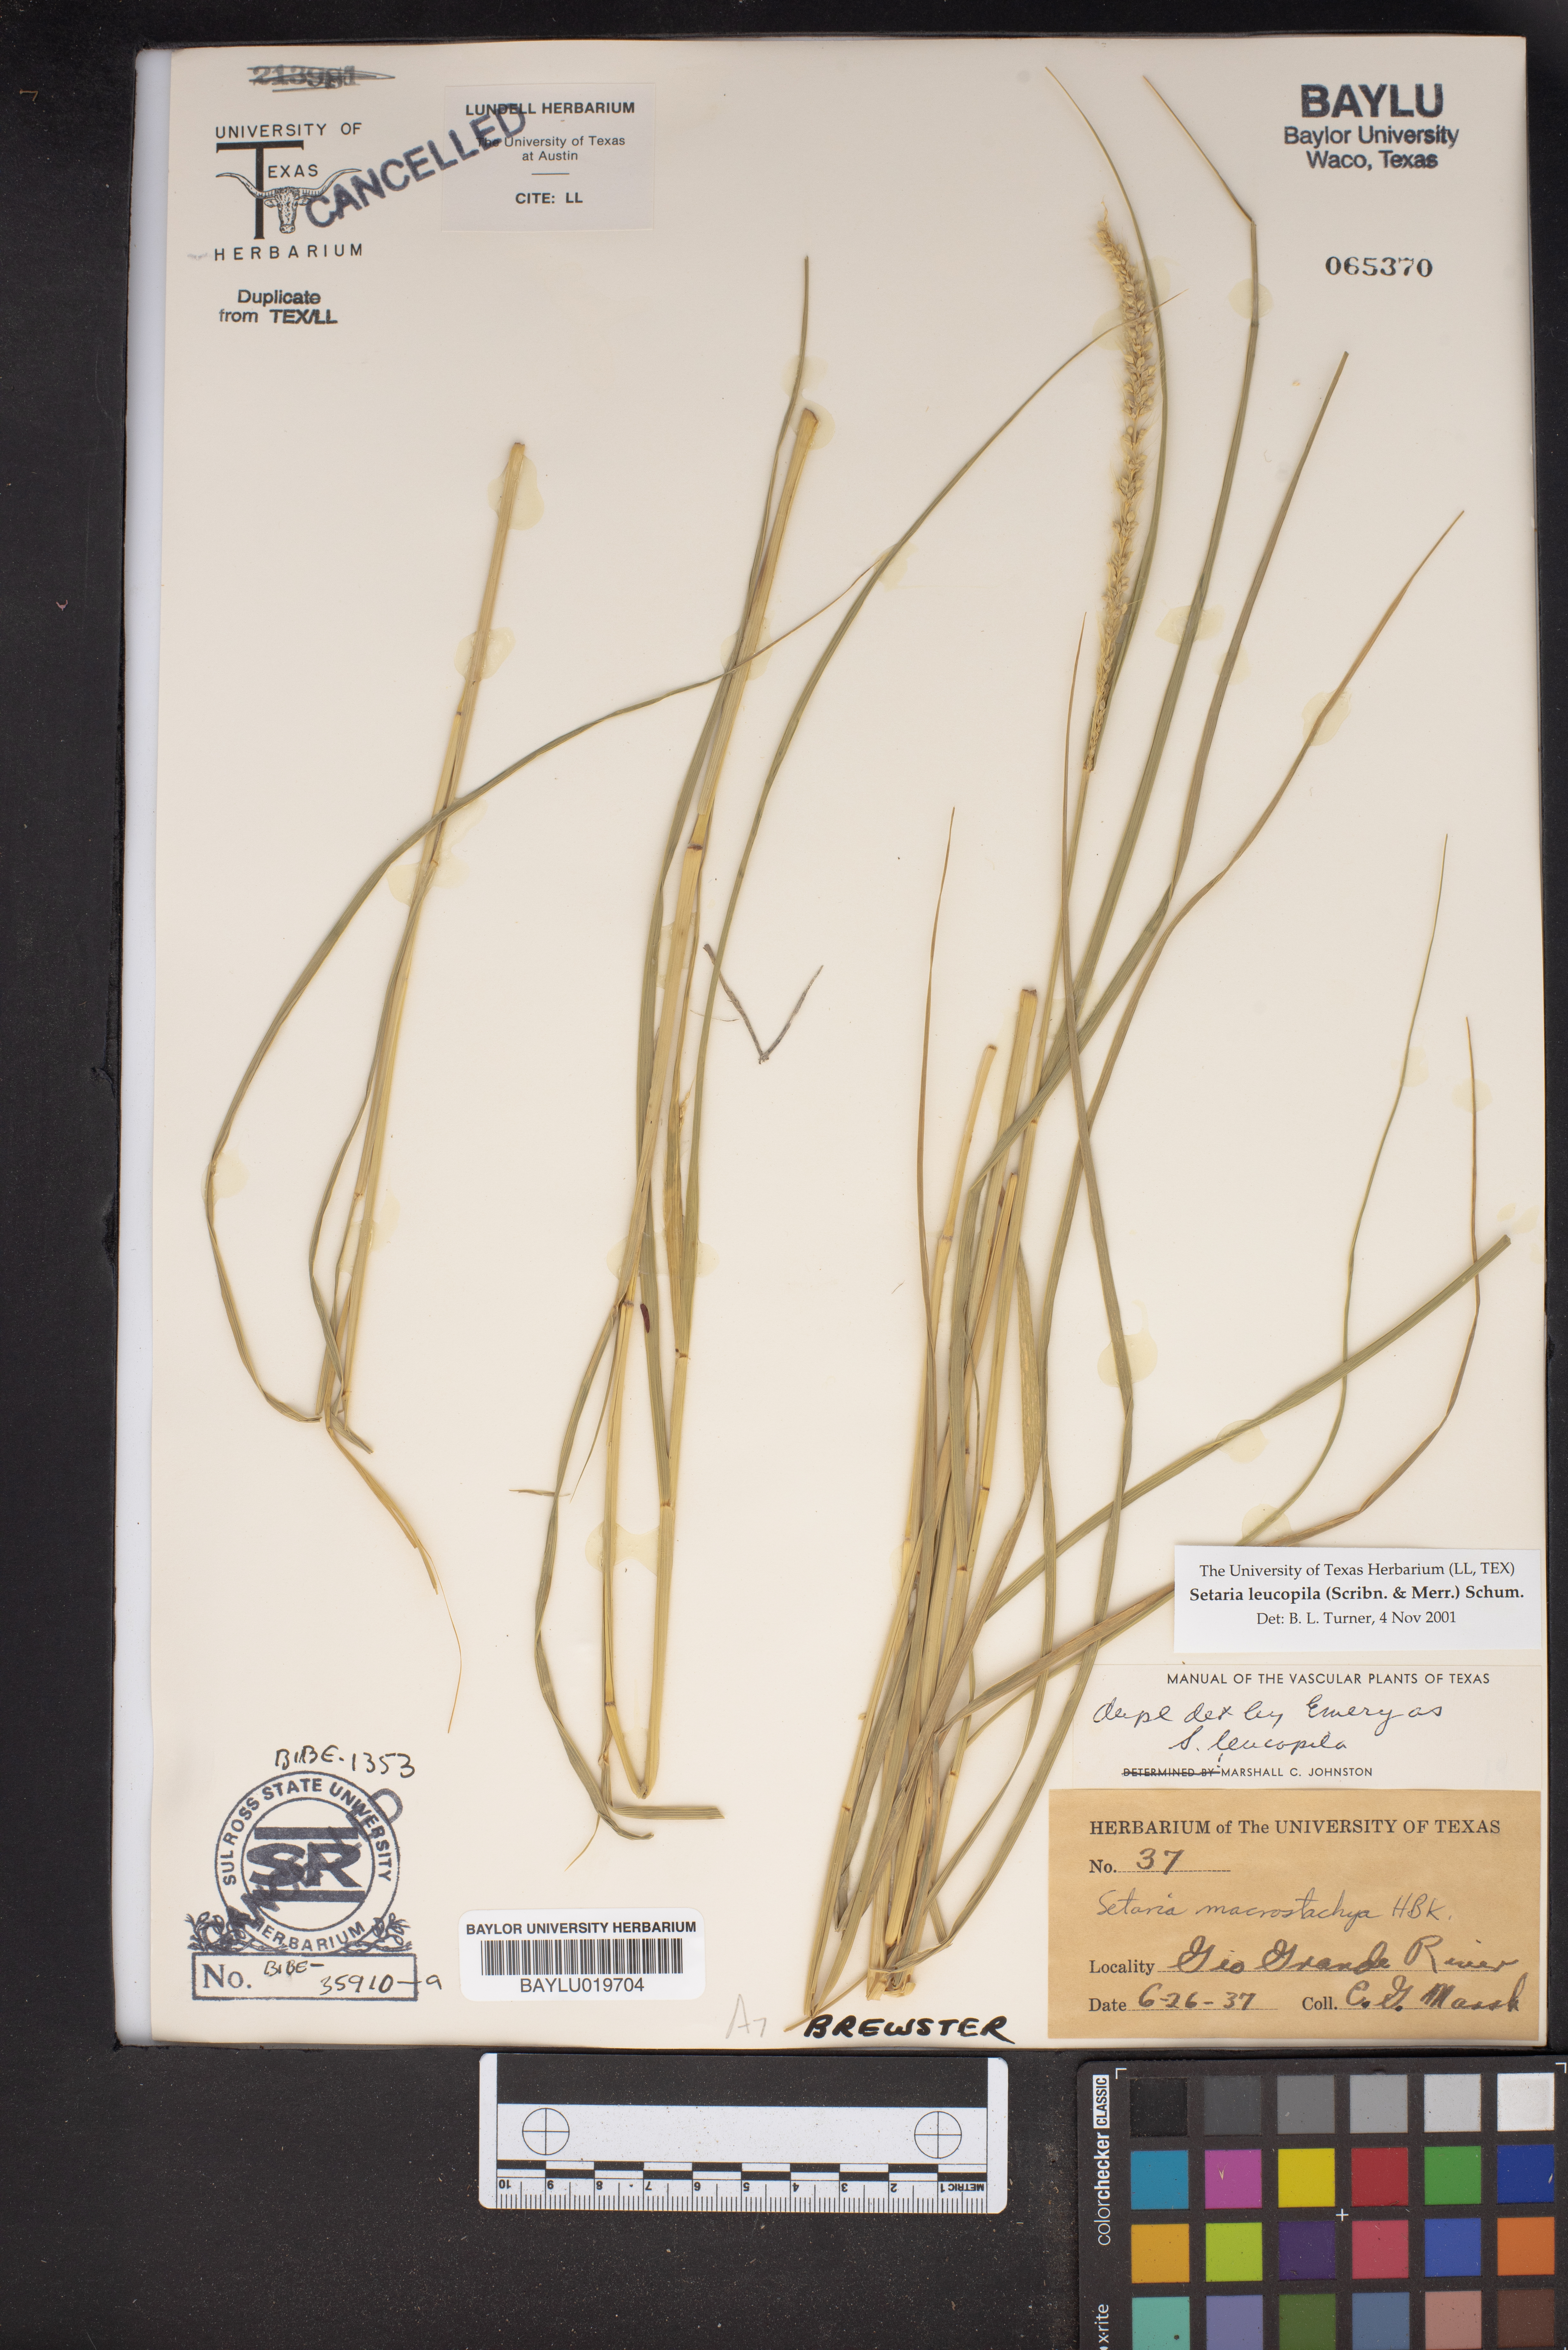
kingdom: Plantae
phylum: Tracheophyta
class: Liliopsida
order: Poales
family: Poaceae
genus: Setaria
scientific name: Setaria leucopila
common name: Plains bristle grass
